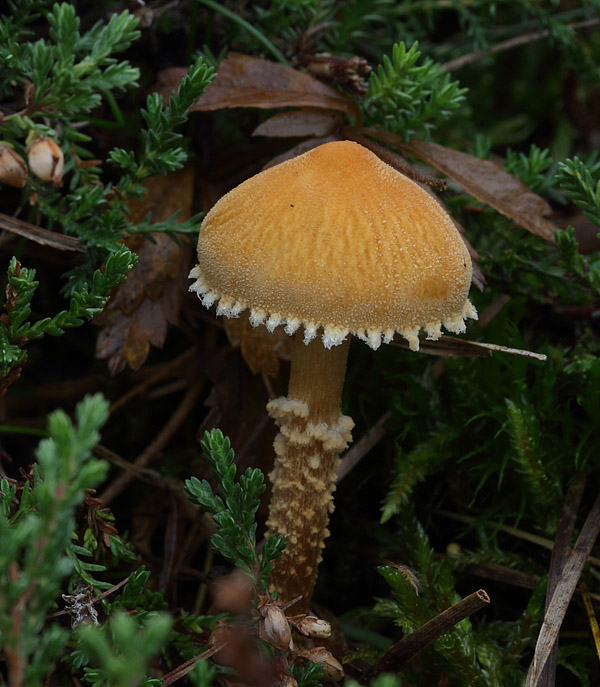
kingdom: Fungi
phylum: Basidiomycota
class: Agaricomycetes
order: Agaricales
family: Tricholomataceae
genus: Cystoderma
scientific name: Cystoderma amianthinum
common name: okkergul grynhat
